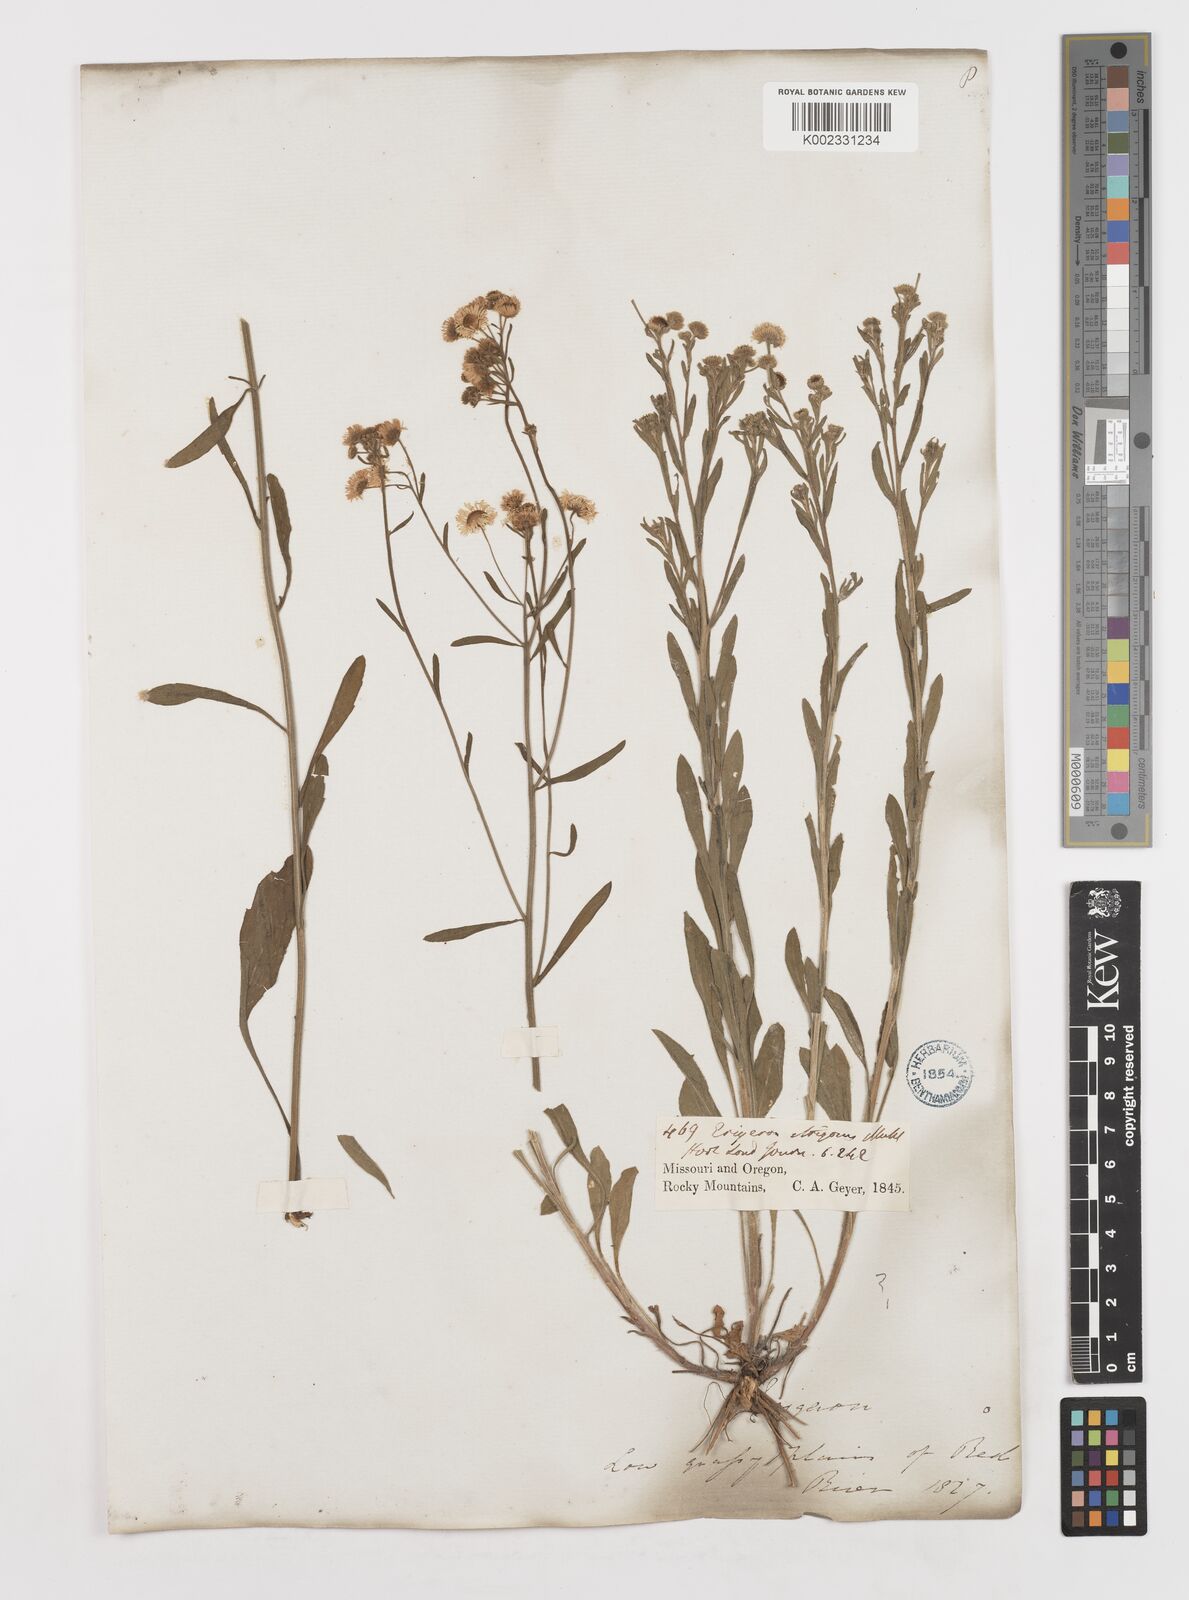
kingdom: Plantae
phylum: Tracheophyta
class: Magnoliopsida
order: Asterales
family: Asteraceae
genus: Erigeron
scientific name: Erigeron strigosus
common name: Common eastern fleabane
